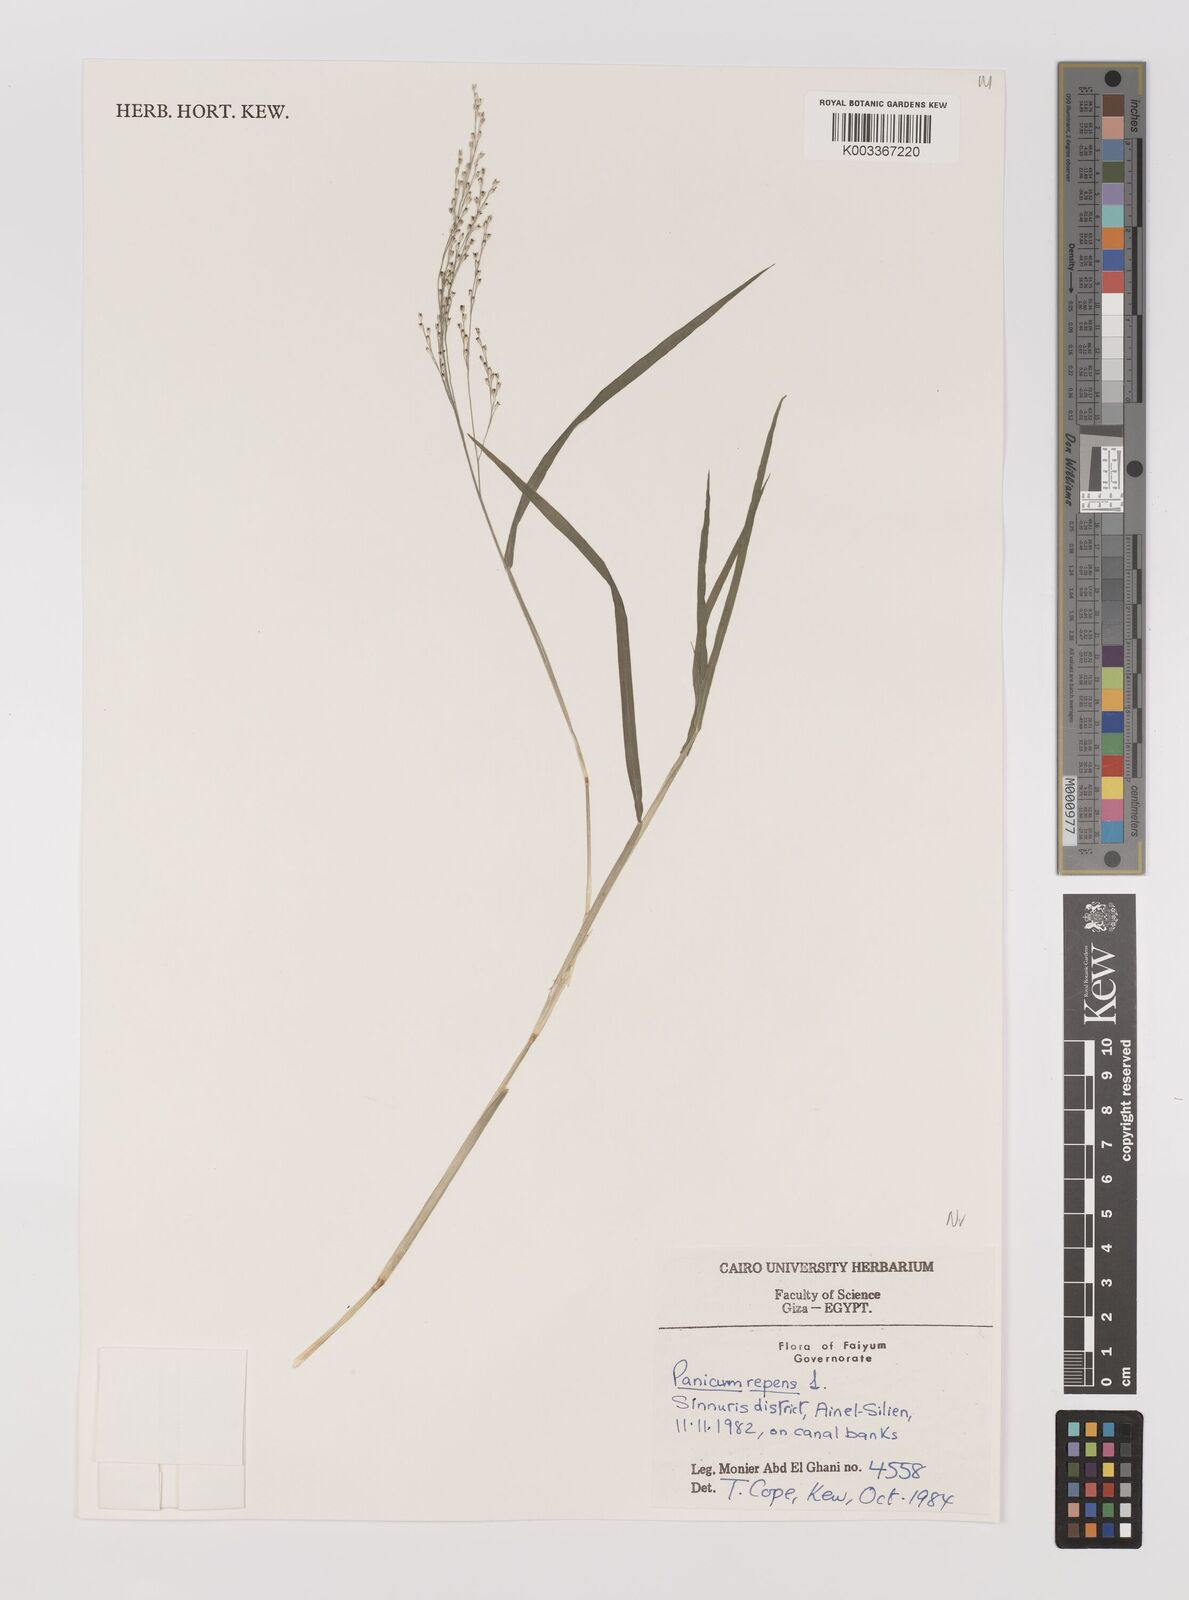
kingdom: Plantae
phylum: Tracheophyta
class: Liliopsida
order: Poales
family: Poaceae
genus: Panicum
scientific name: Panicum repens
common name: Torpedo grass
